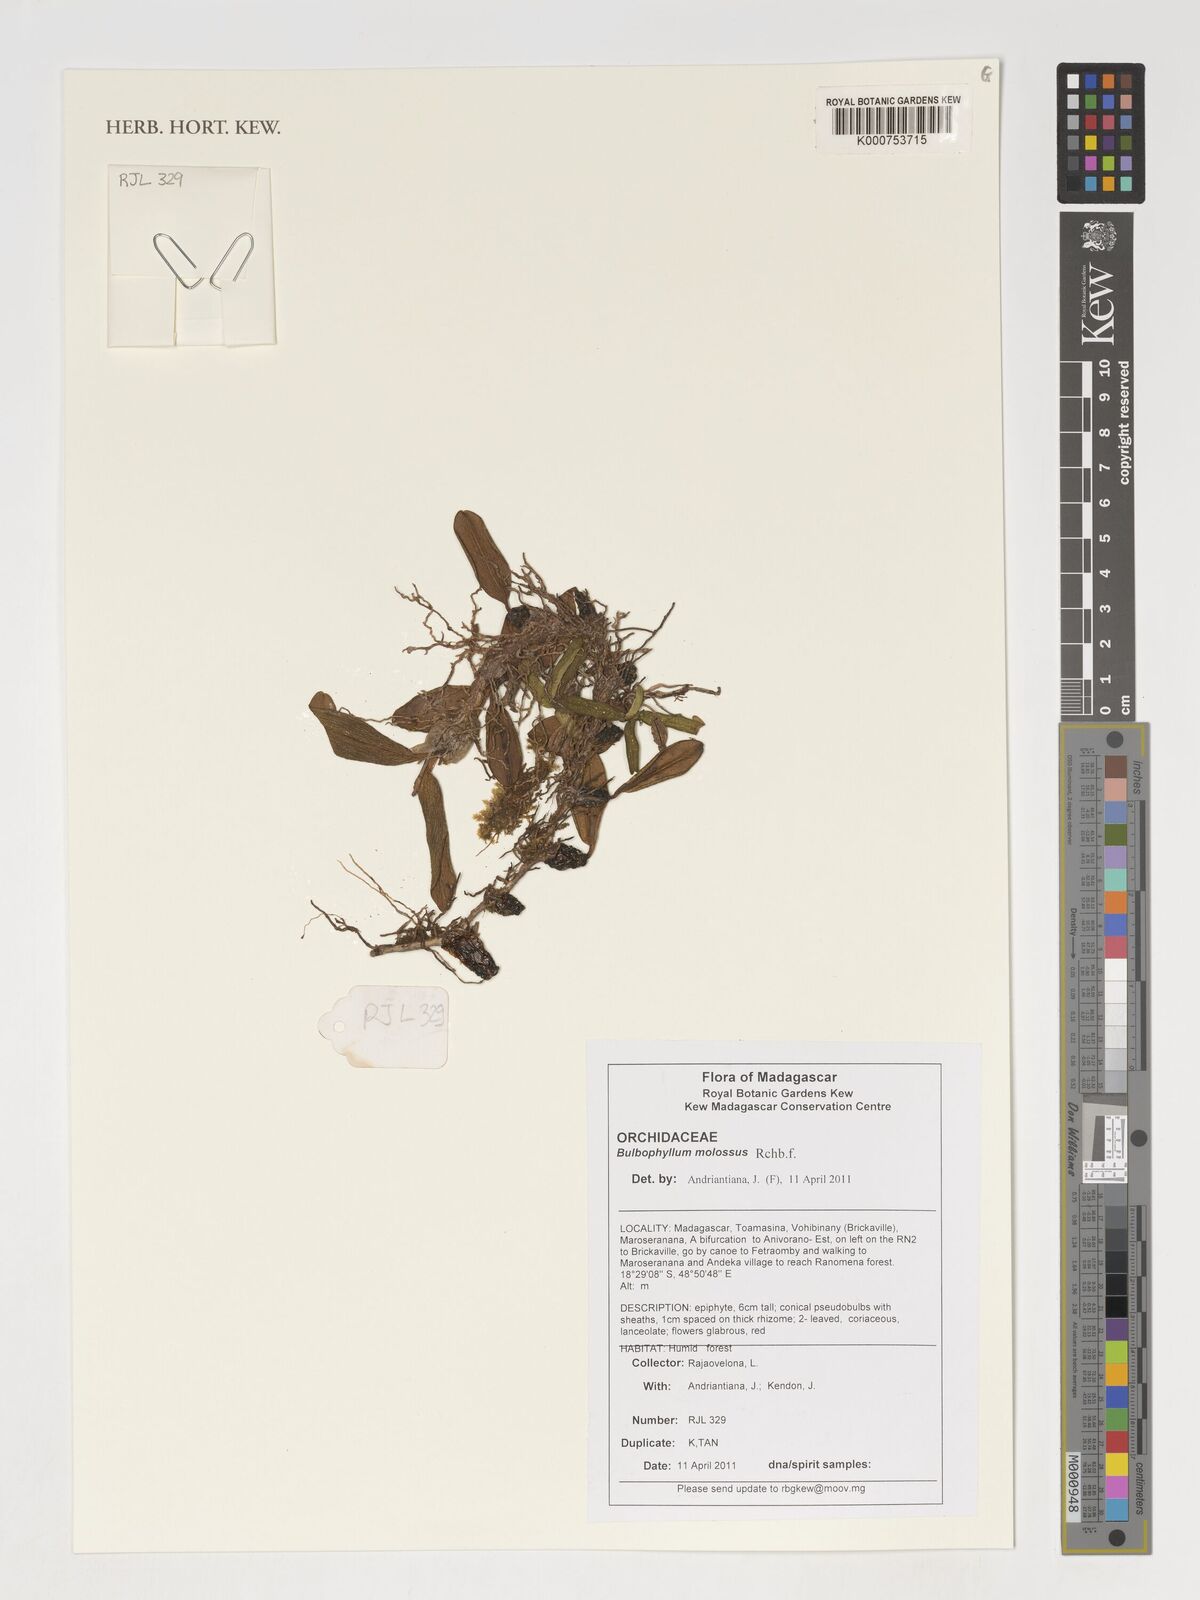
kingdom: Plantae
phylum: Tracheophyta
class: Liliopsida
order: Asparagales
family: Orchidaceae
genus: Bulbophyllum
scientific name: Bulbophyllum molossus
